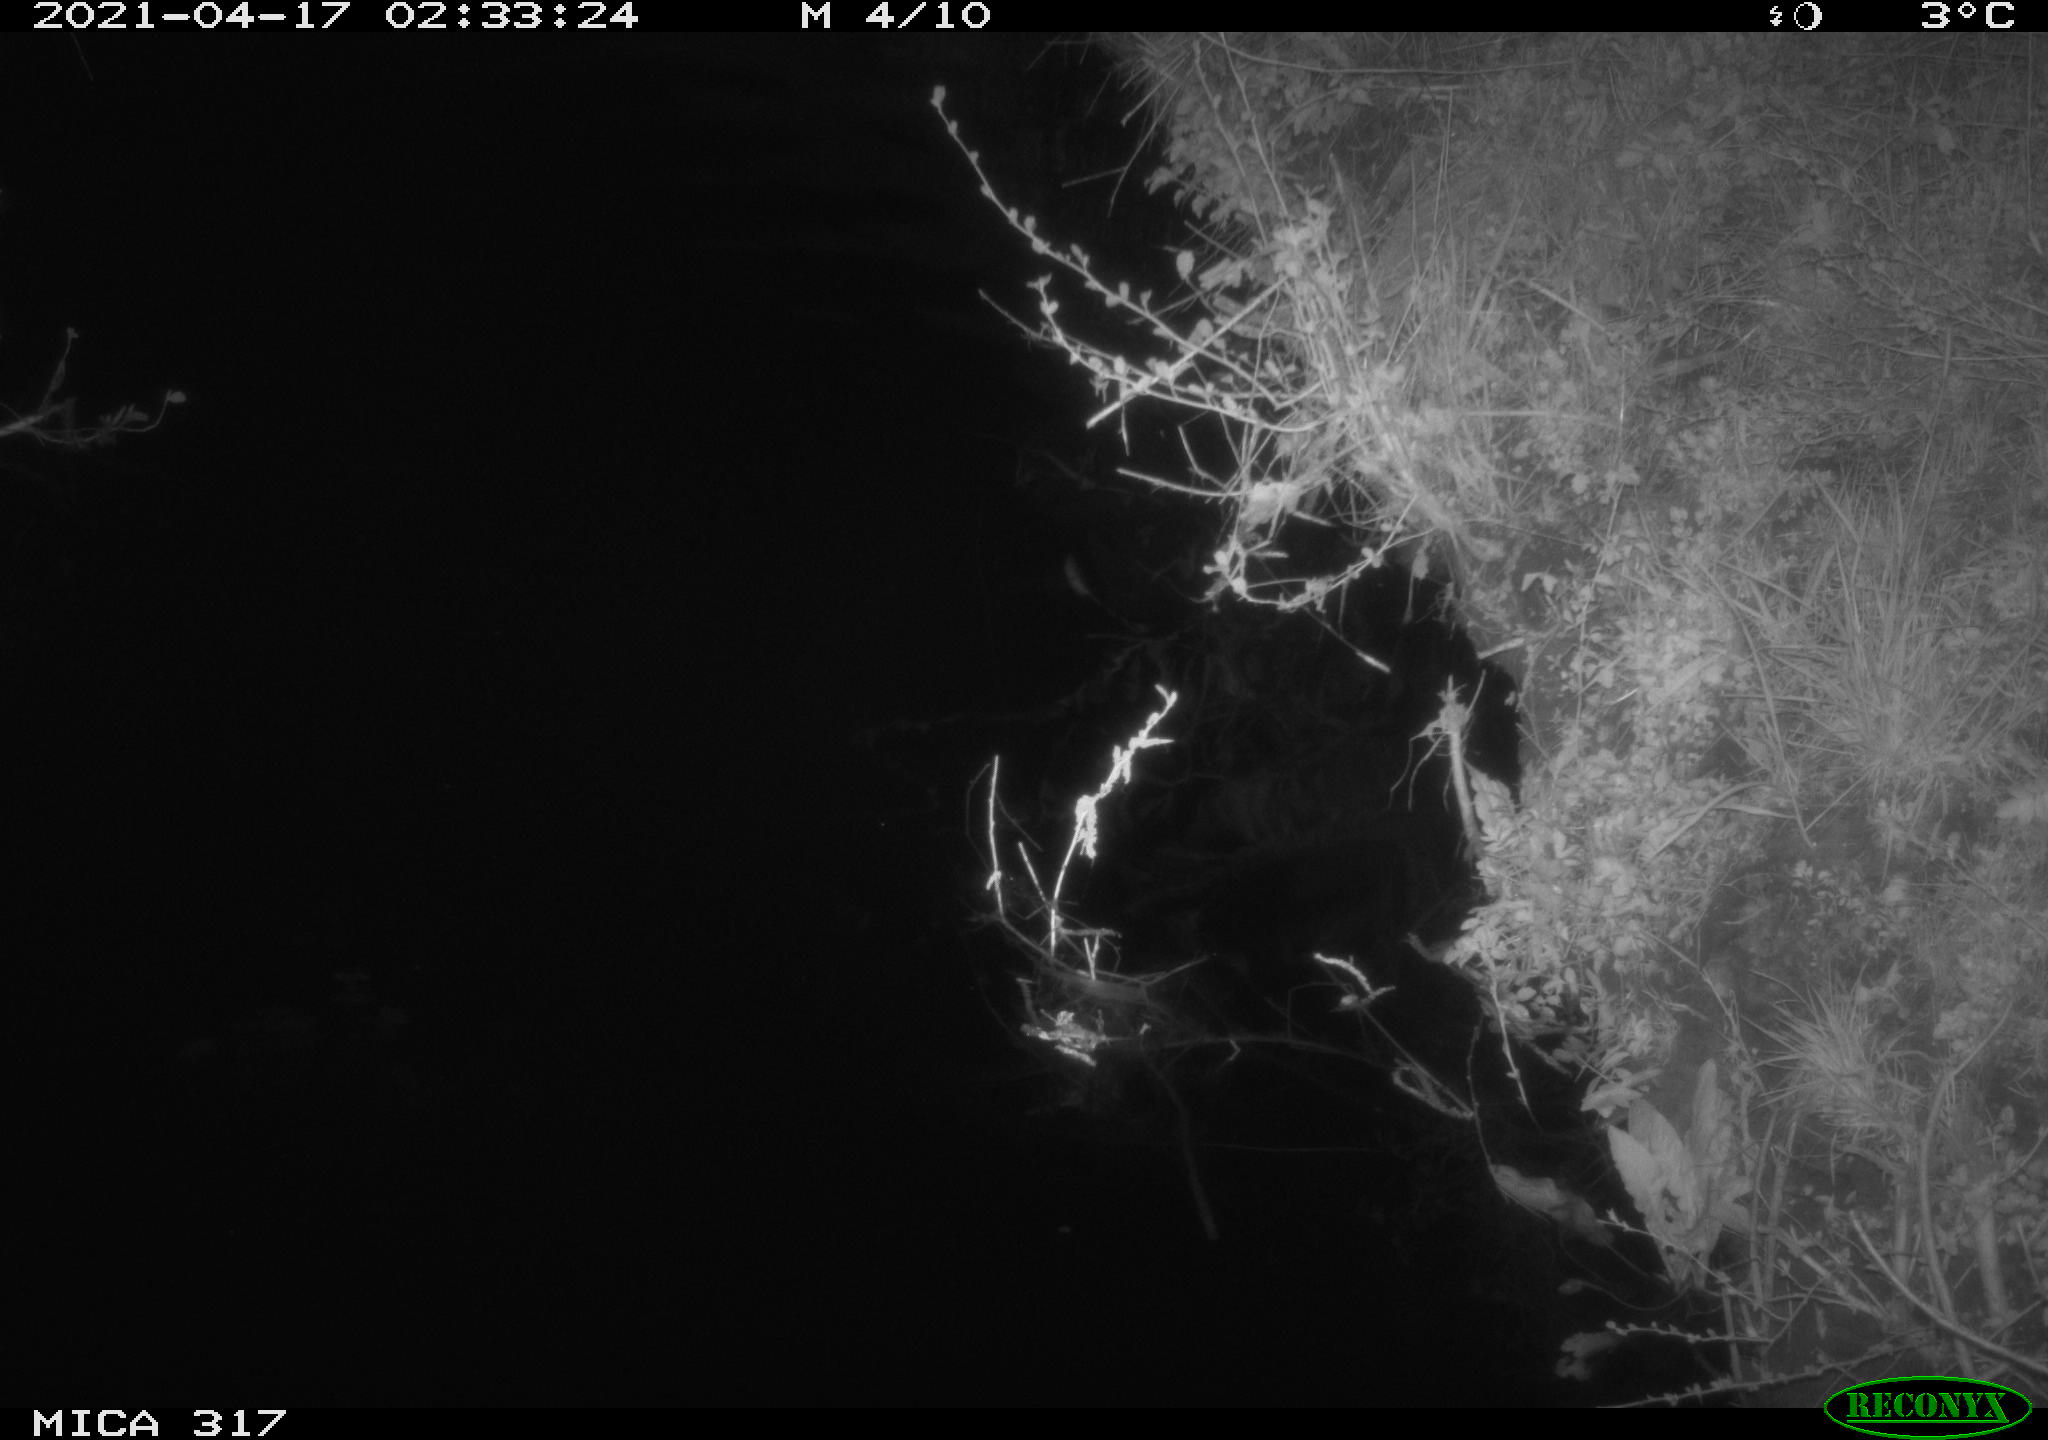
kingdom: Animalia
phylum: Chordata
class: Aves
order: Anseriformes
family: Anatidae
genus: Anas
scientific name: Anas platyrhynchos
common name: Mallard
